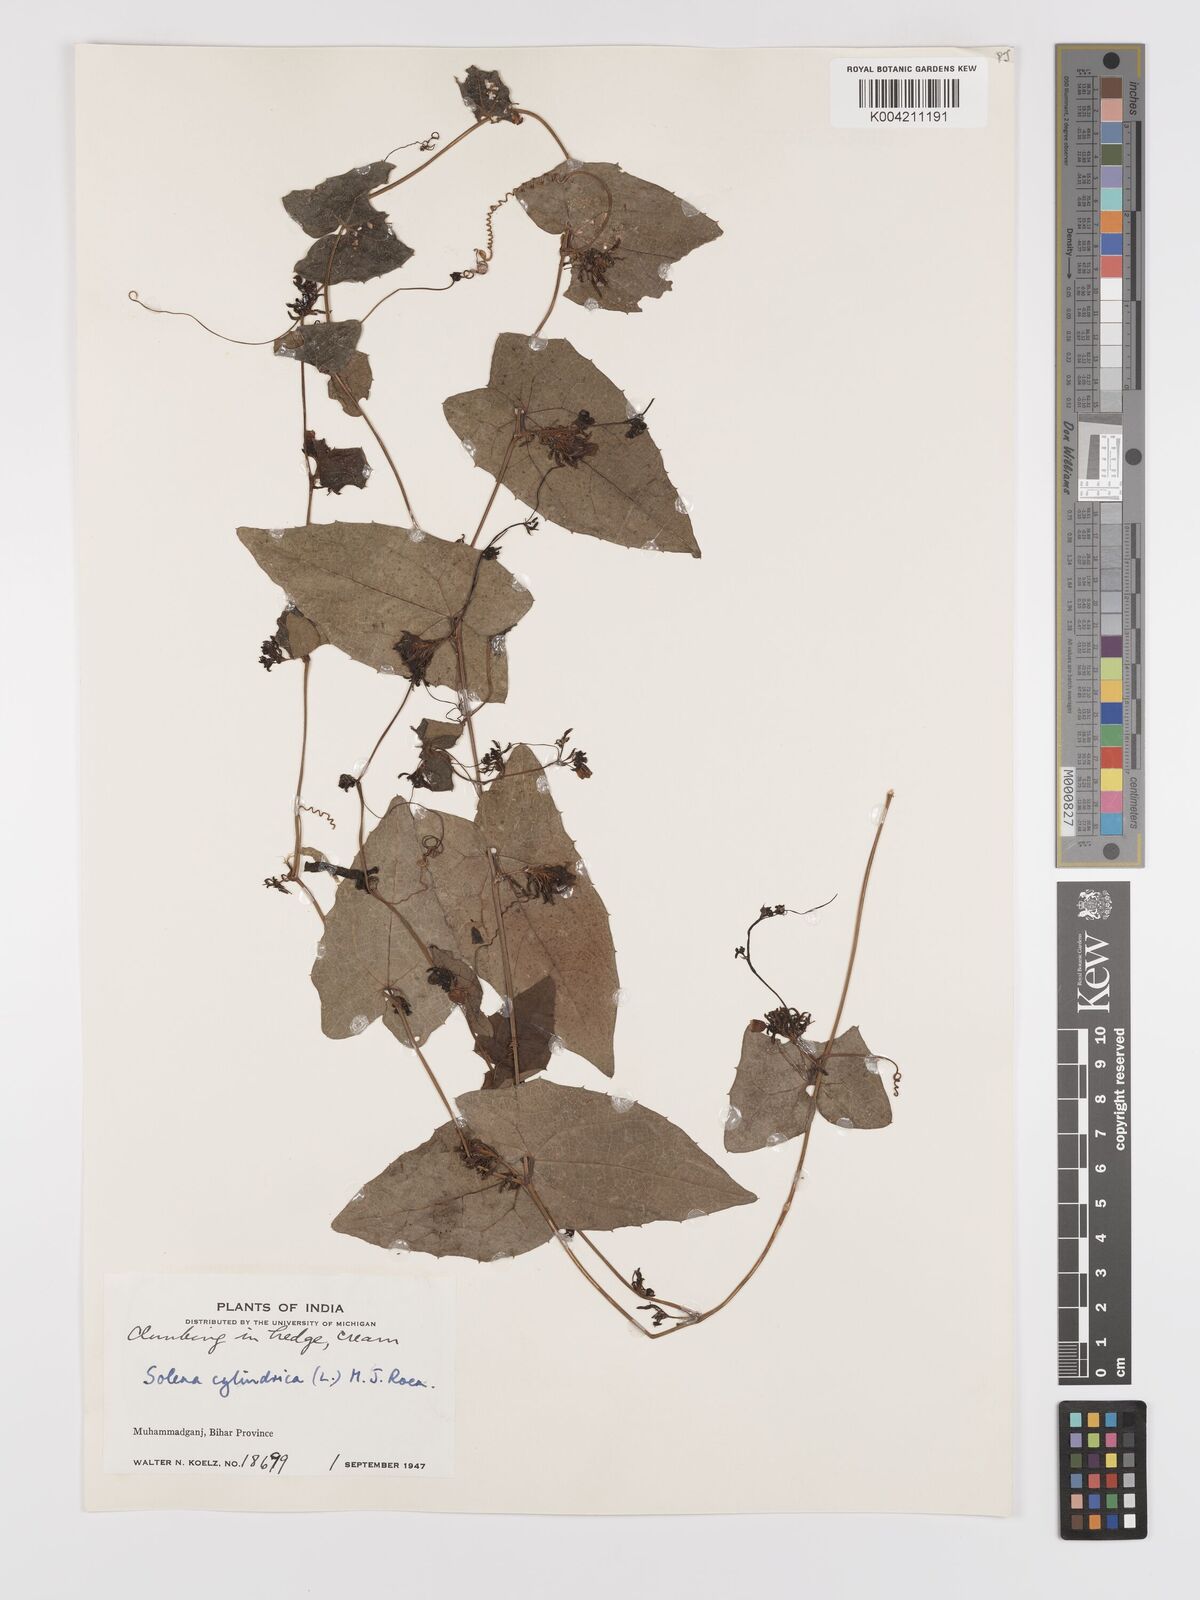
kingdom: Plantae
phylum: Tracheophyta
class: Magnoliopsida
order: Cucurbitales
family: Cucurbitaceae
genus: Solena
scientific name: Solena amplexicaulis
